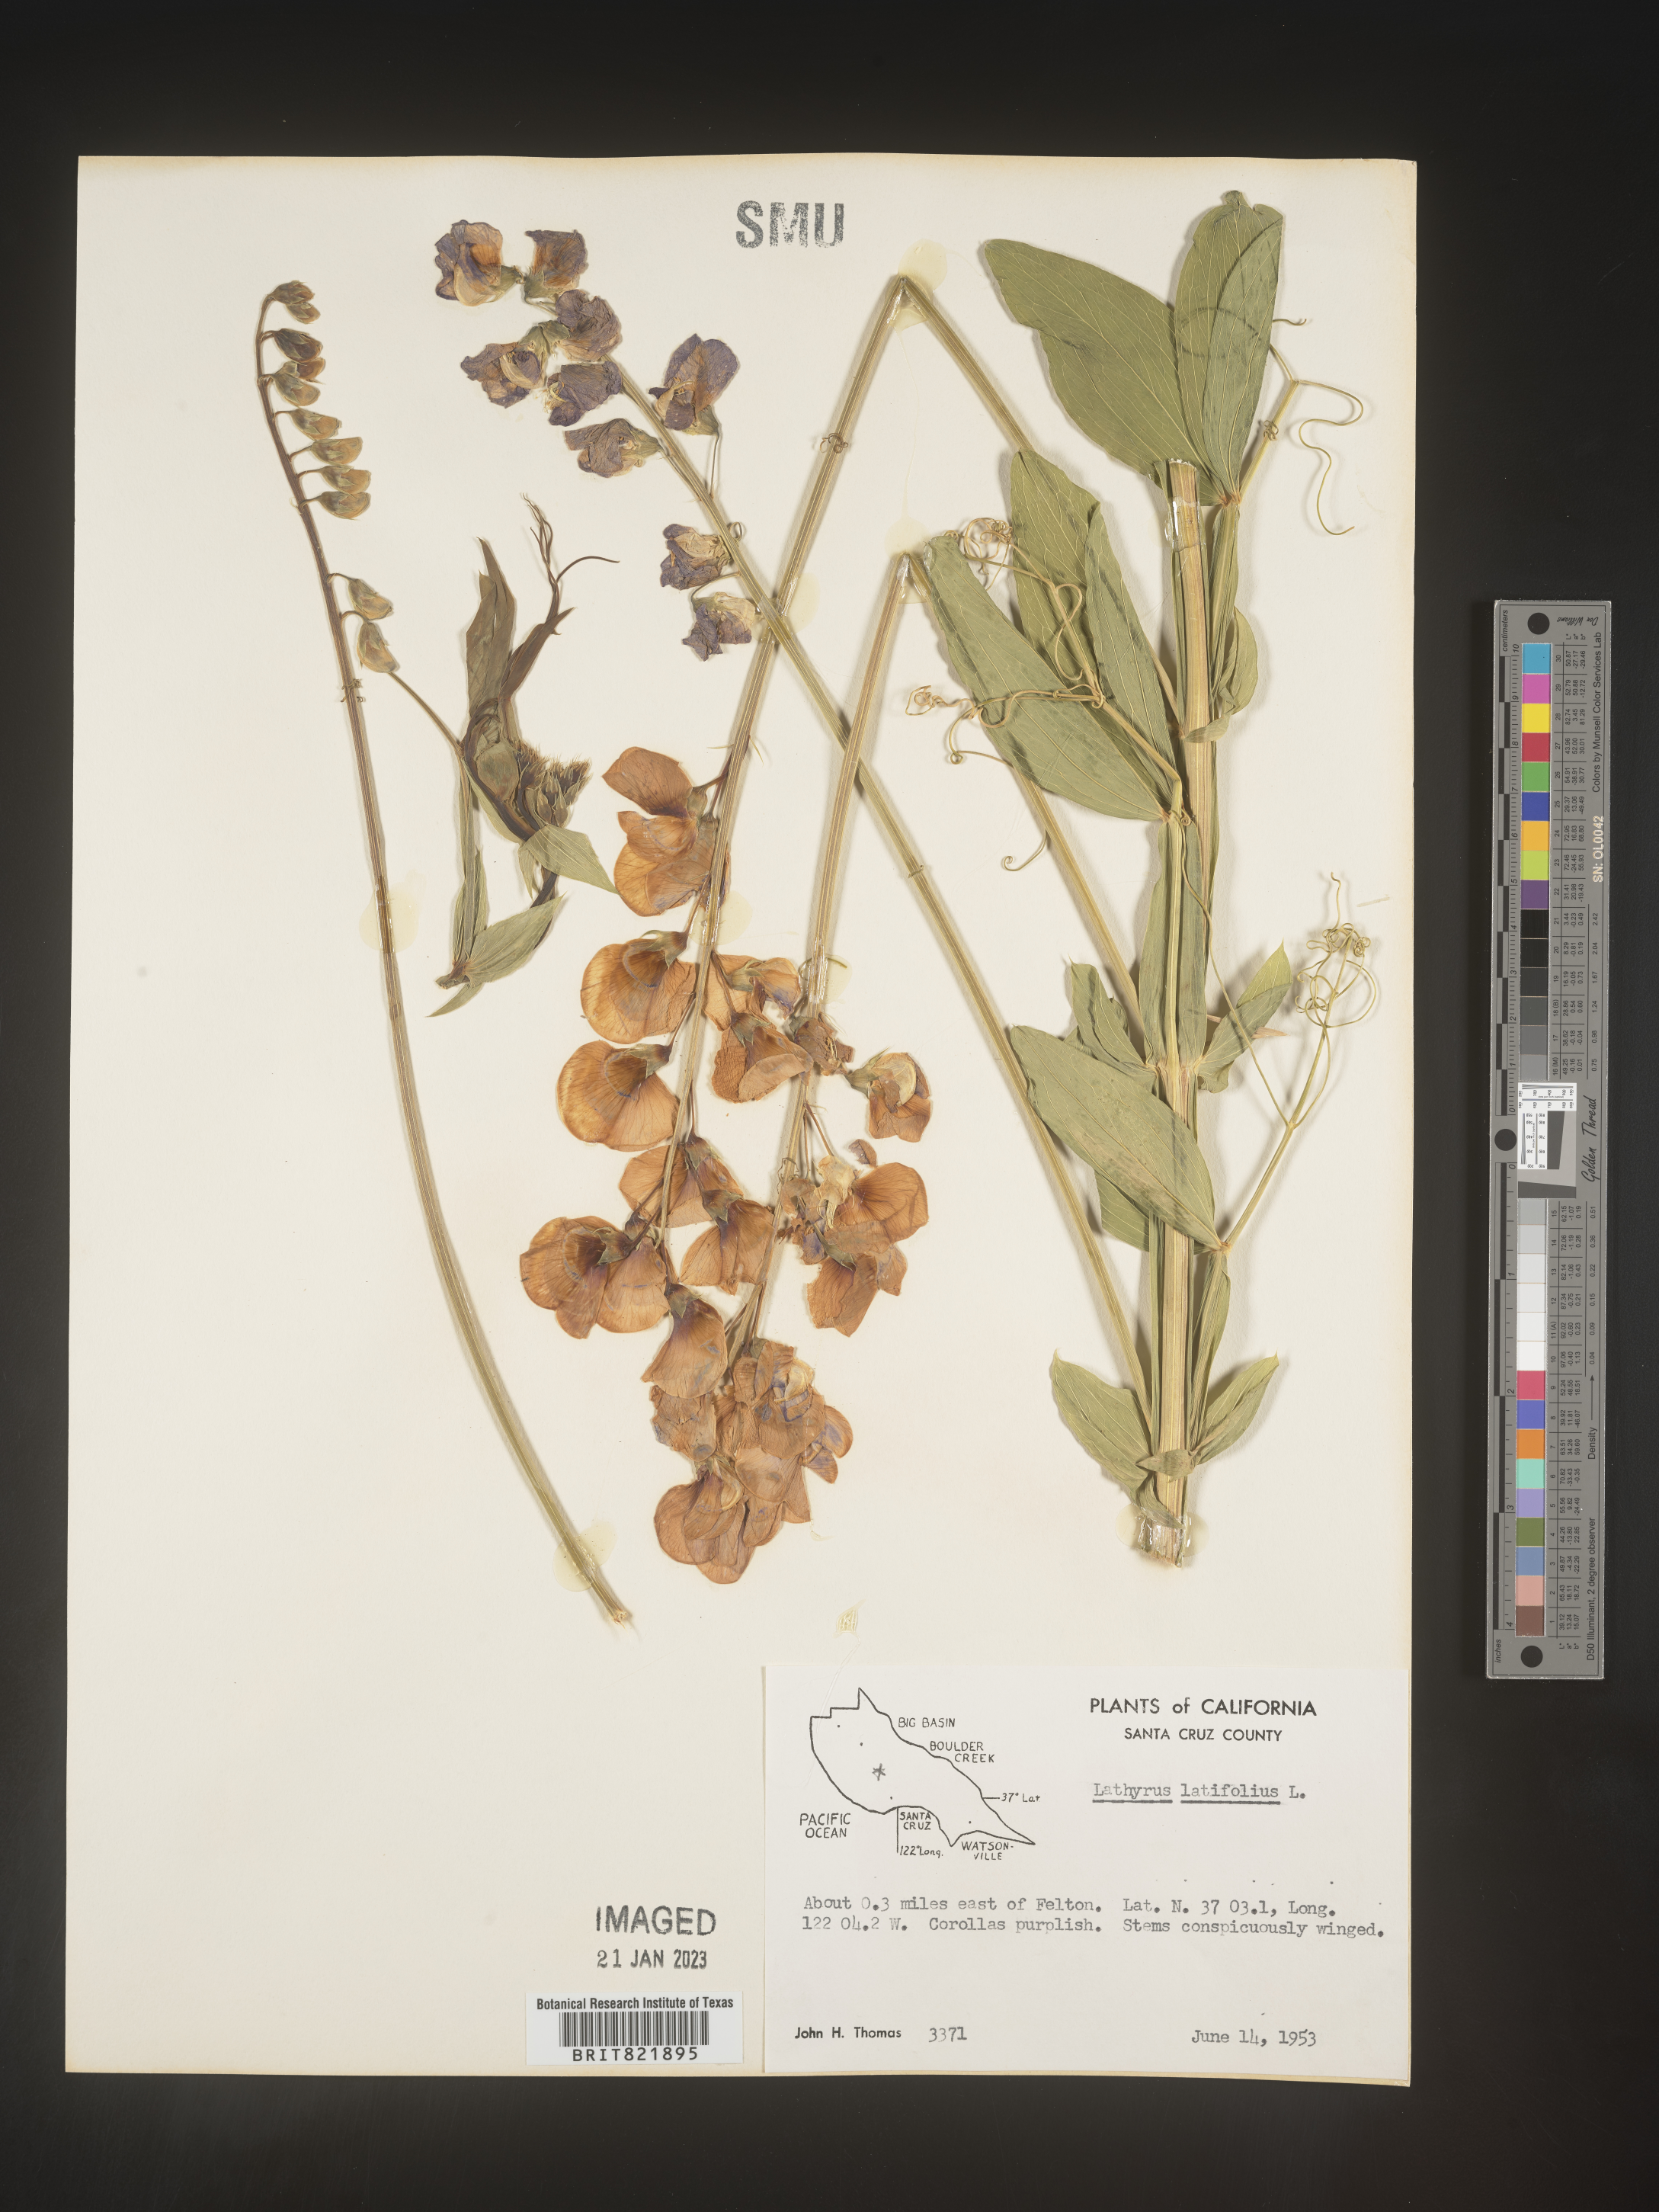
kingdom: Plantae
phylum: Tracheophyta
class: Magnoliopsida
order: Fabales
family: Fabaceae
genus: Lathyrus
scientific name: Lathyrus latifolius
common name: Perennial pea
